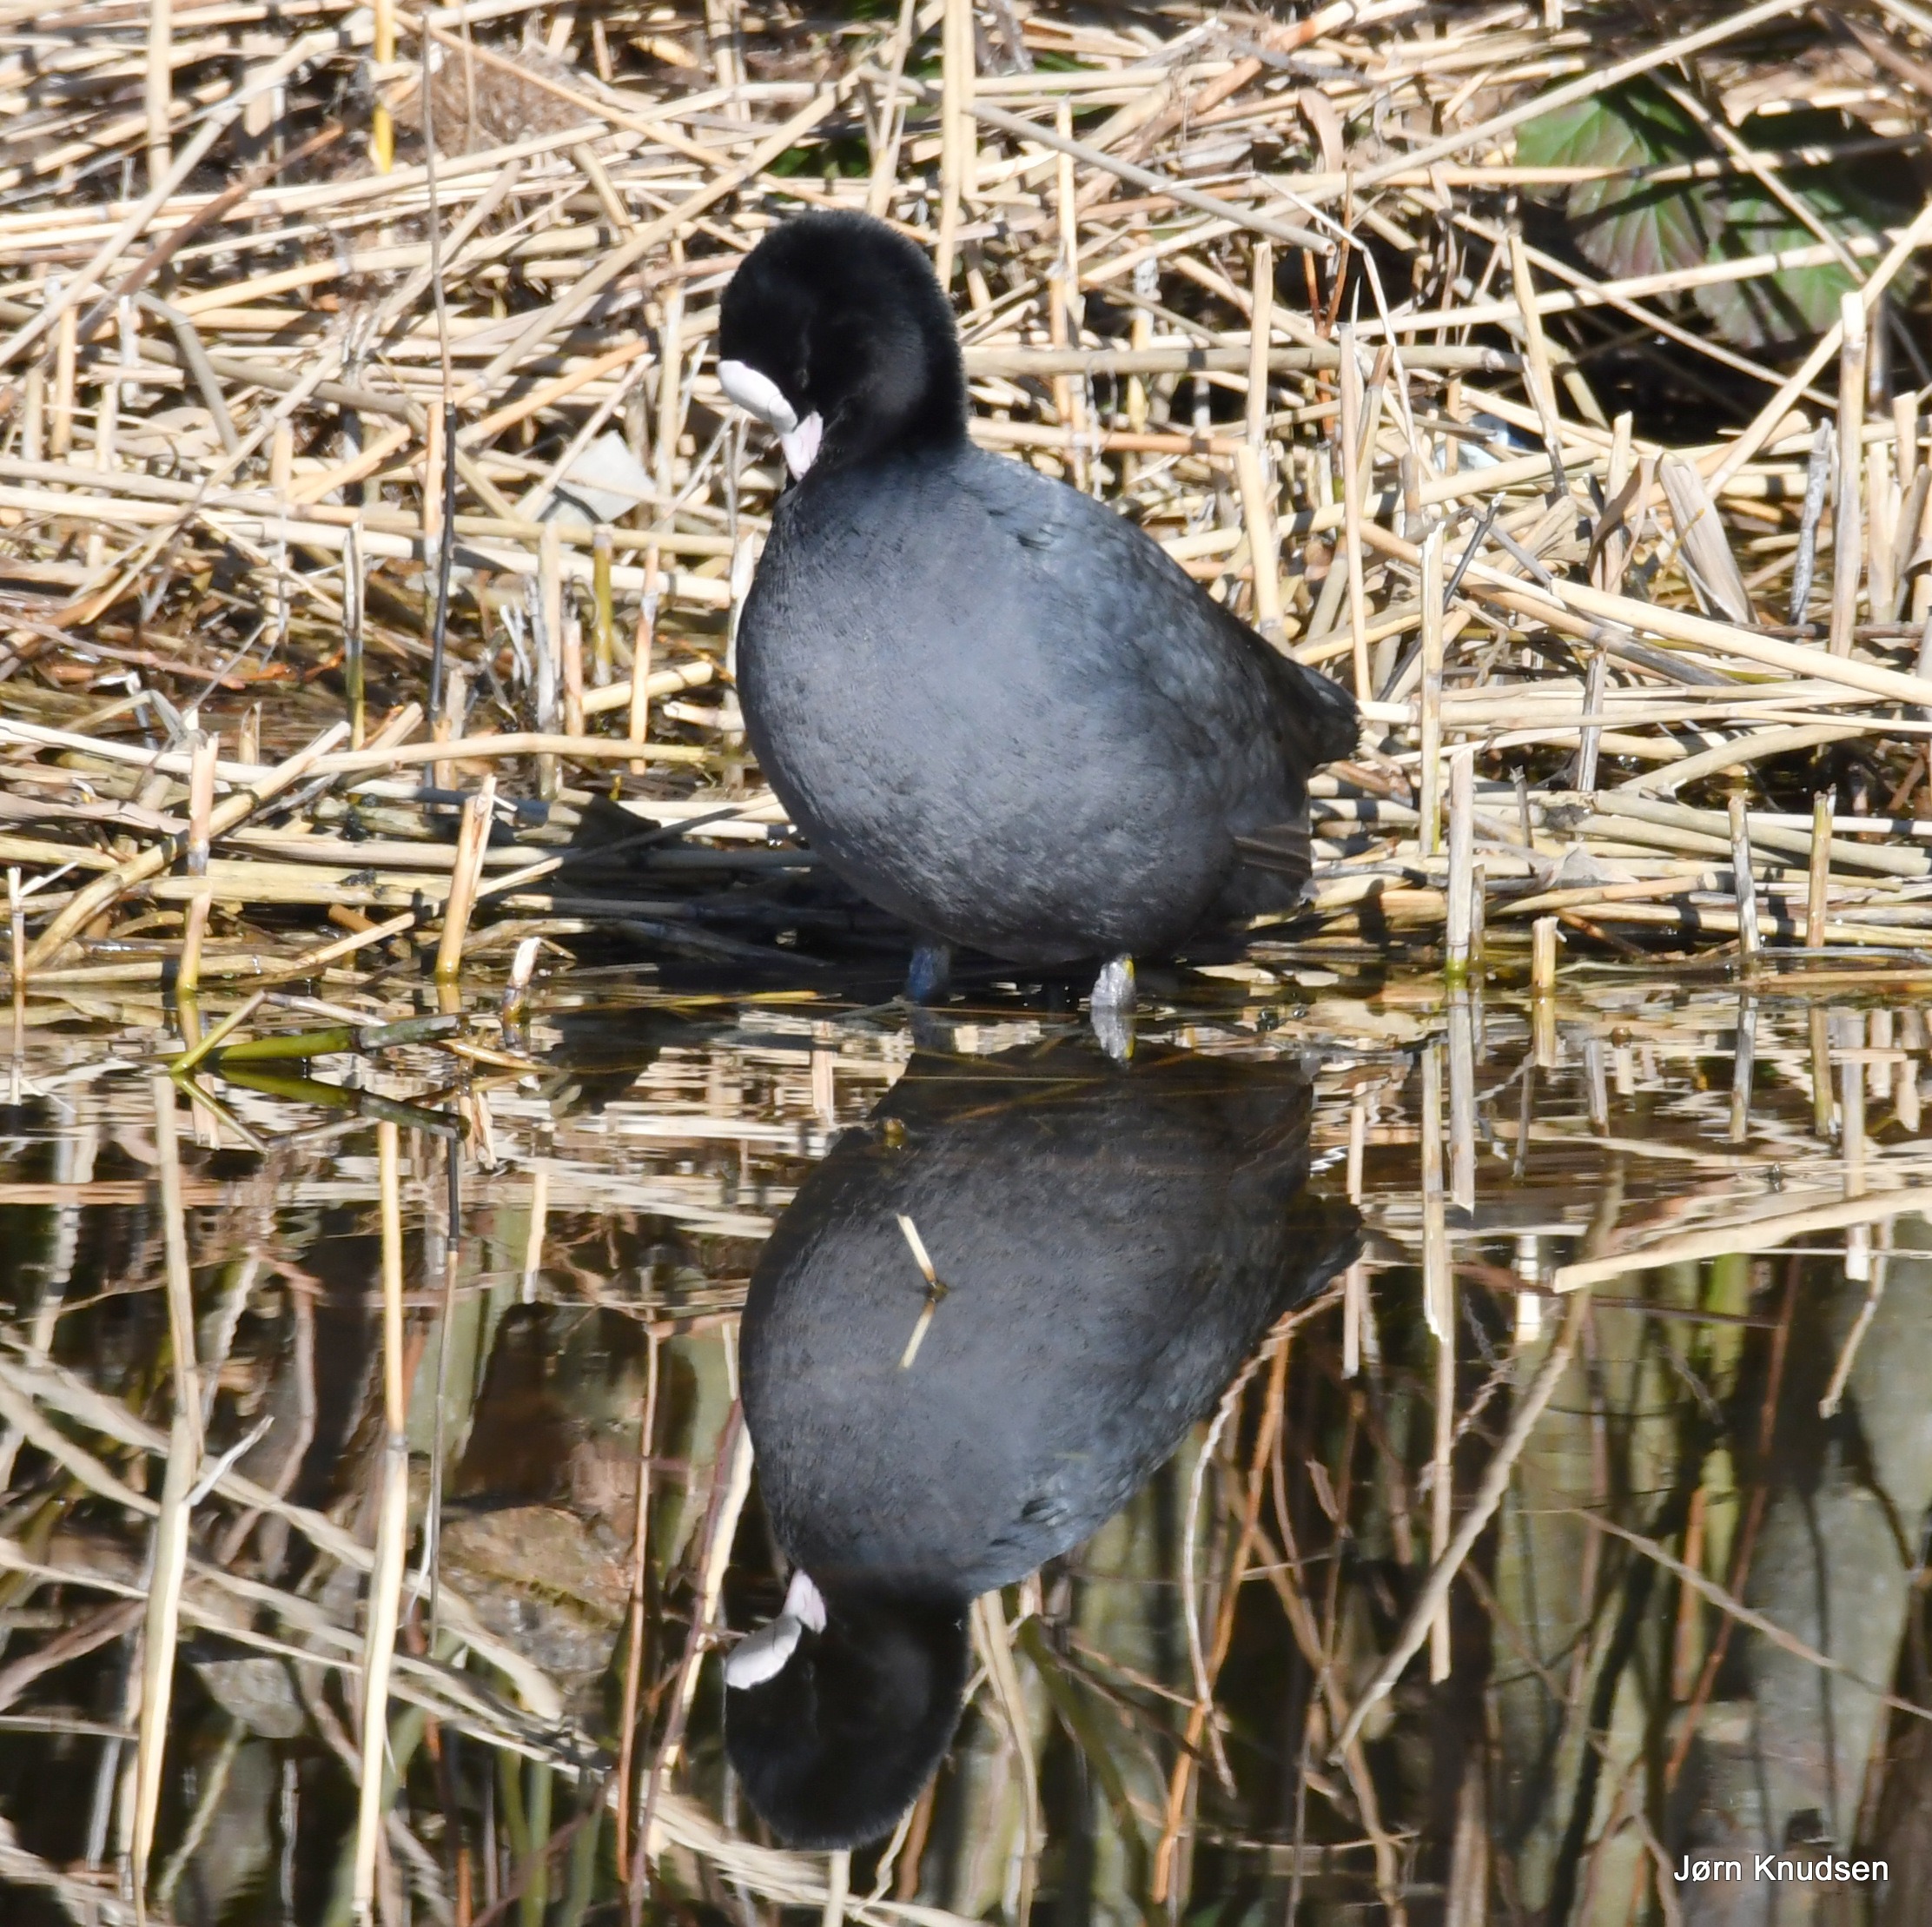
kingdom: Animalia
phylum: Chordata
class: Aves
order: Gruiformes
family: Rallidae
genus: Fulica
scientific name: Fulica atra
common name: Blishøne
